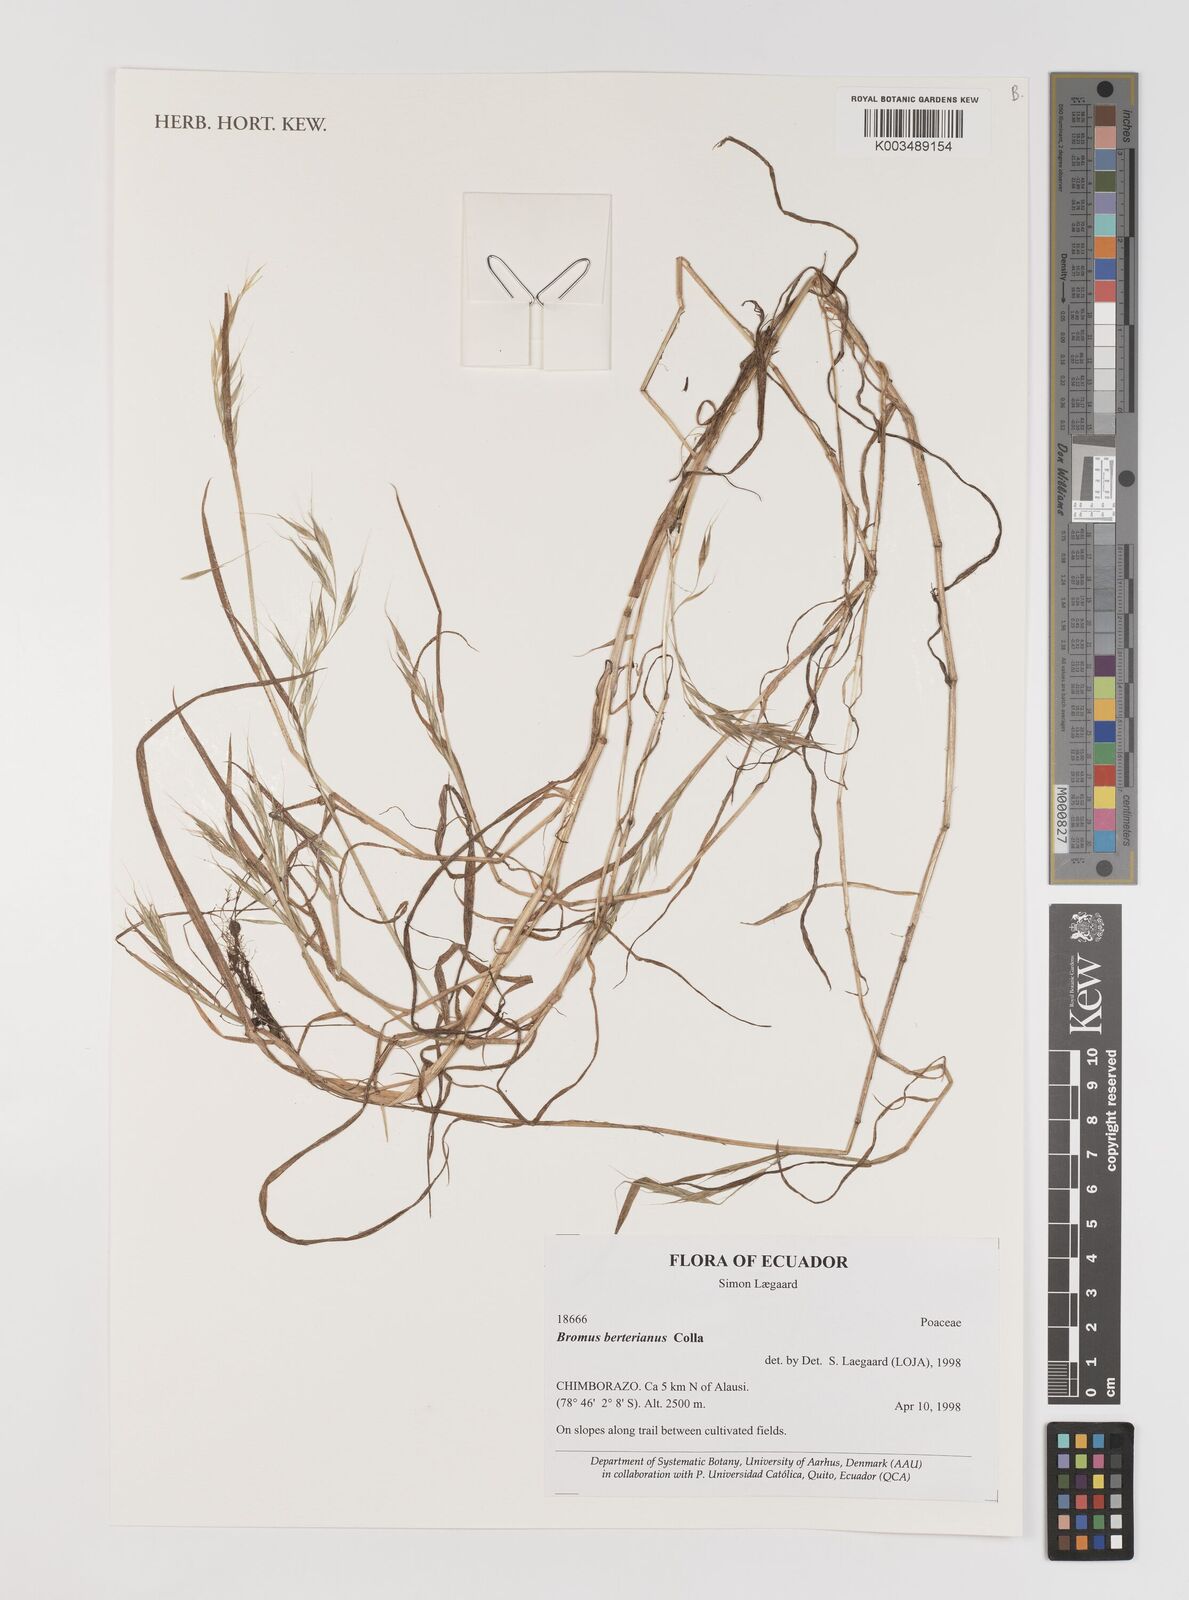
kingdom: Plantae
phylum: Tracheophyta
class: Liliopsida
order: Poales
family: Poaceae
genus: Bromus
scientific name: Bromus berteroanus
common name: Chilean chess
